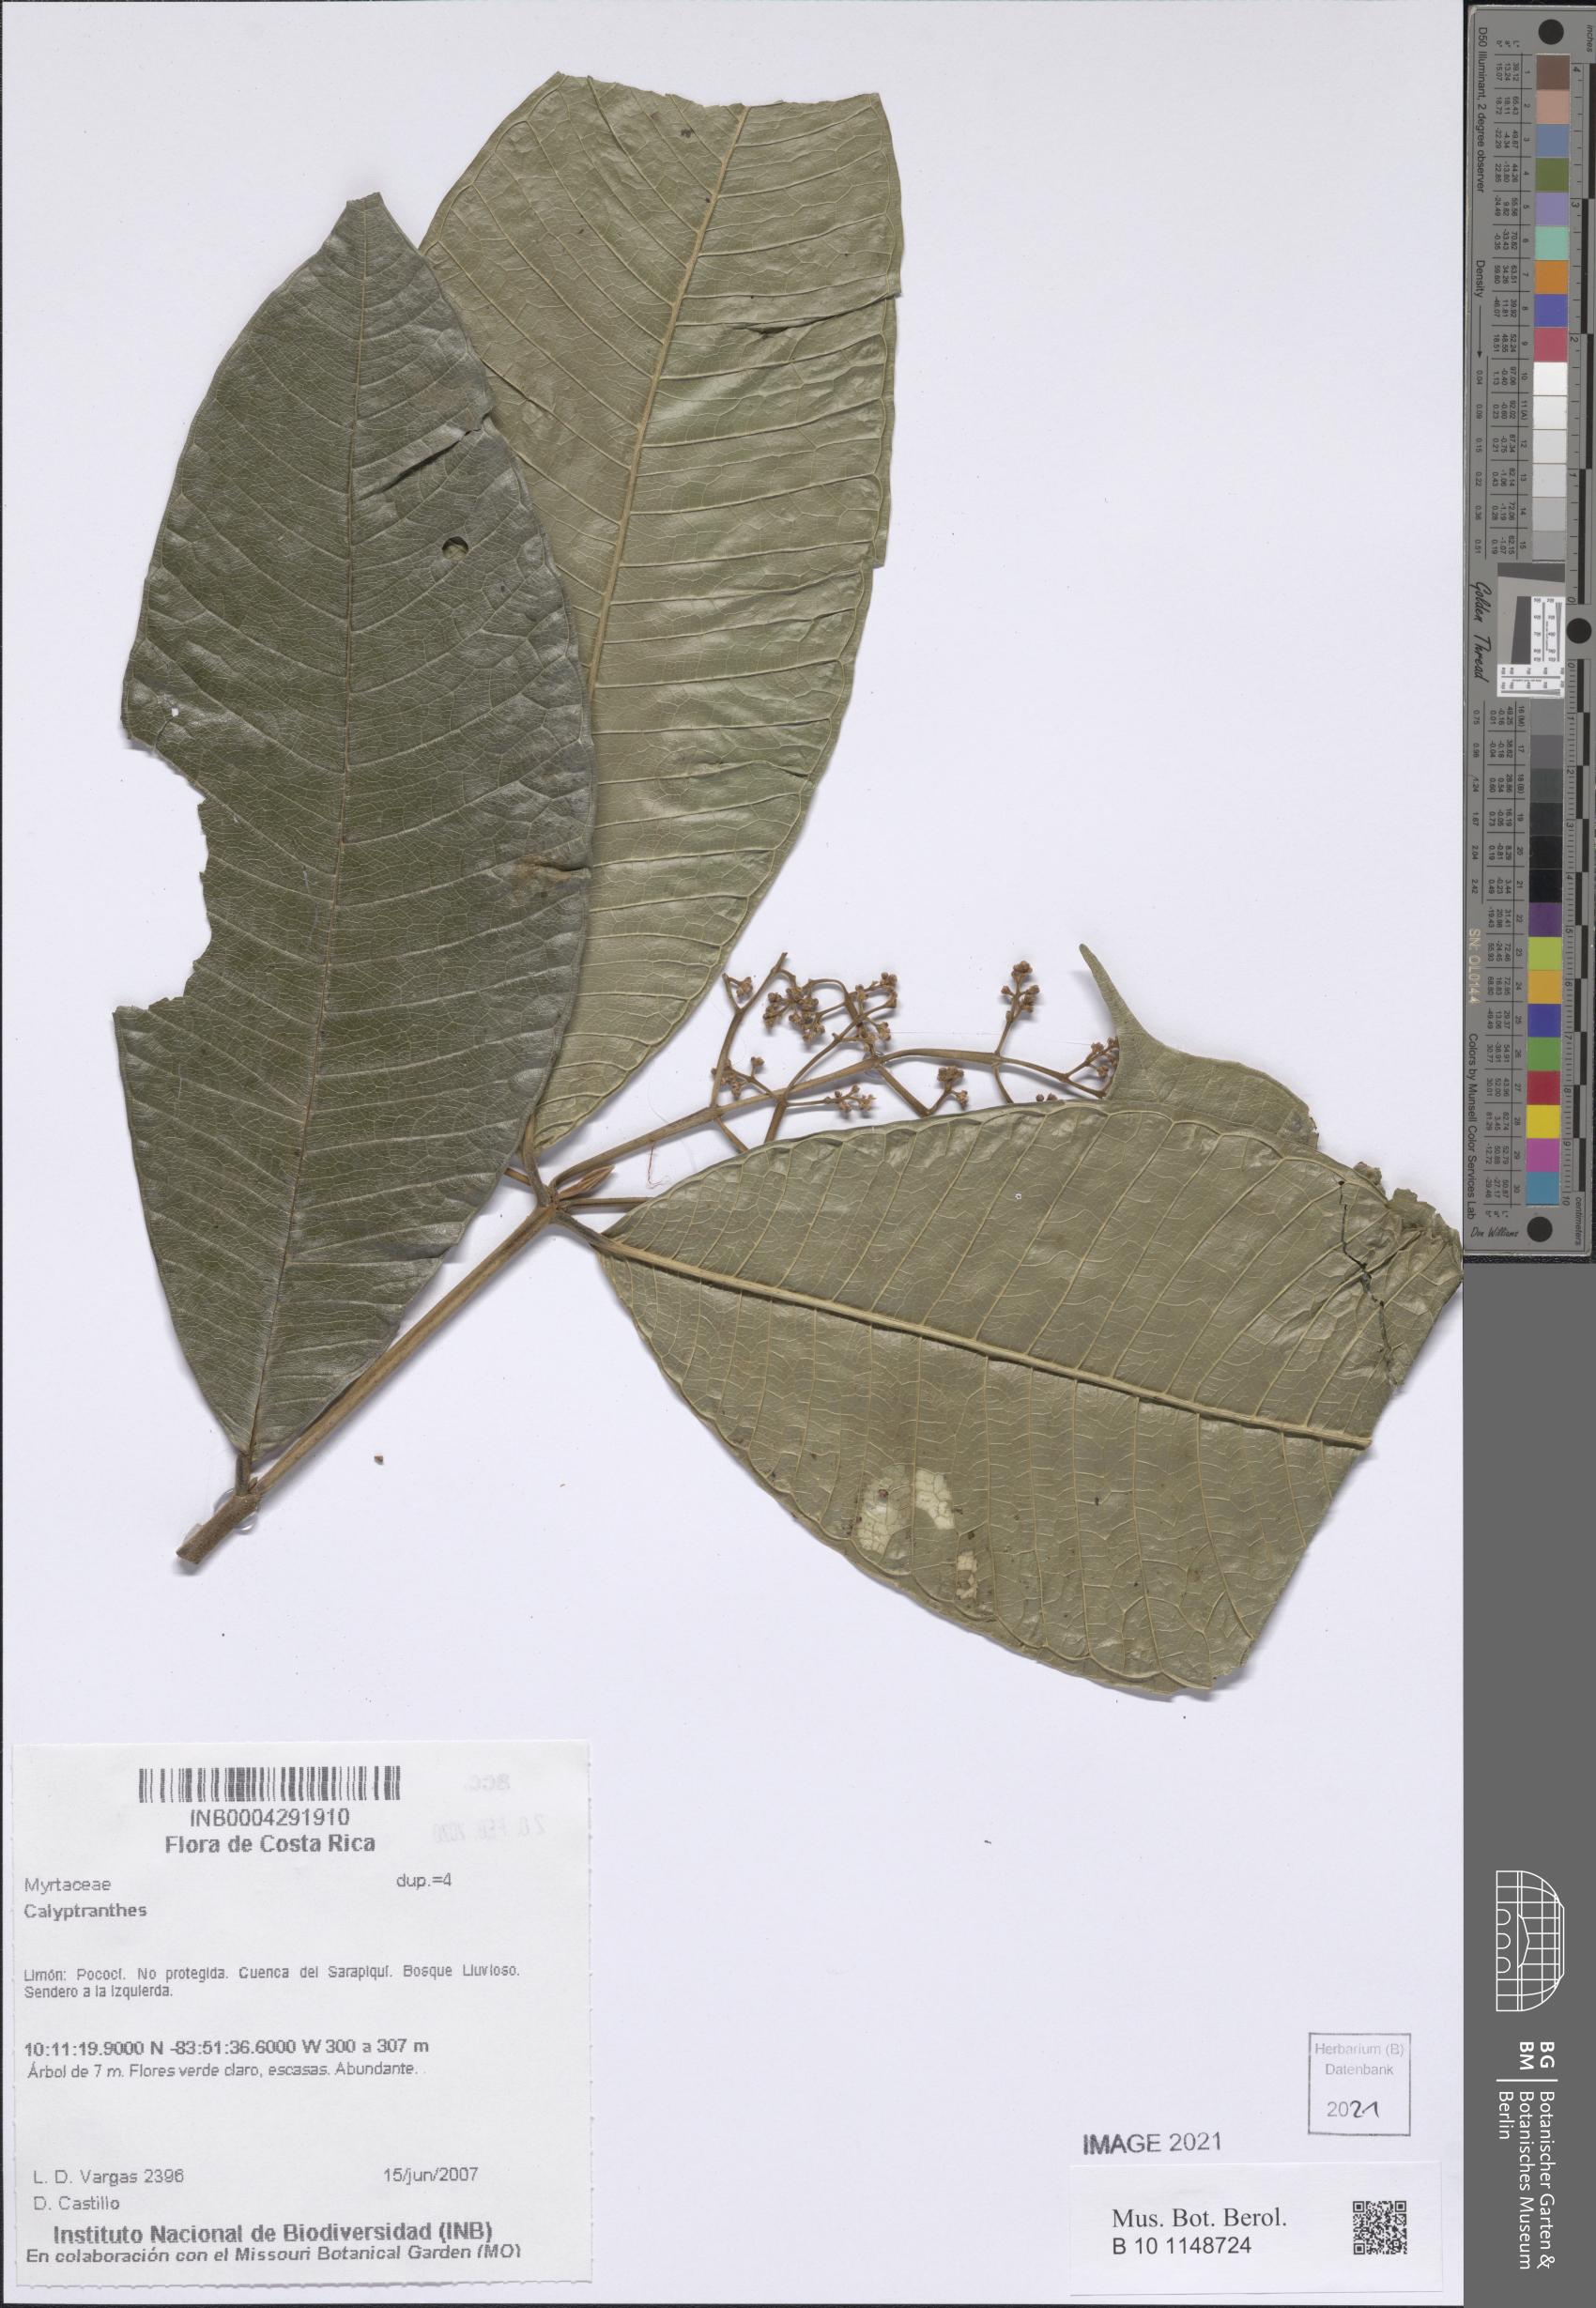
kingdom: Plantae
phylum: Tracheophyta
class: Magnoliopsida
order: Myrtales
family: Myrtaceae
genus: Calyptranthes
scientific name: Calyptranthes
